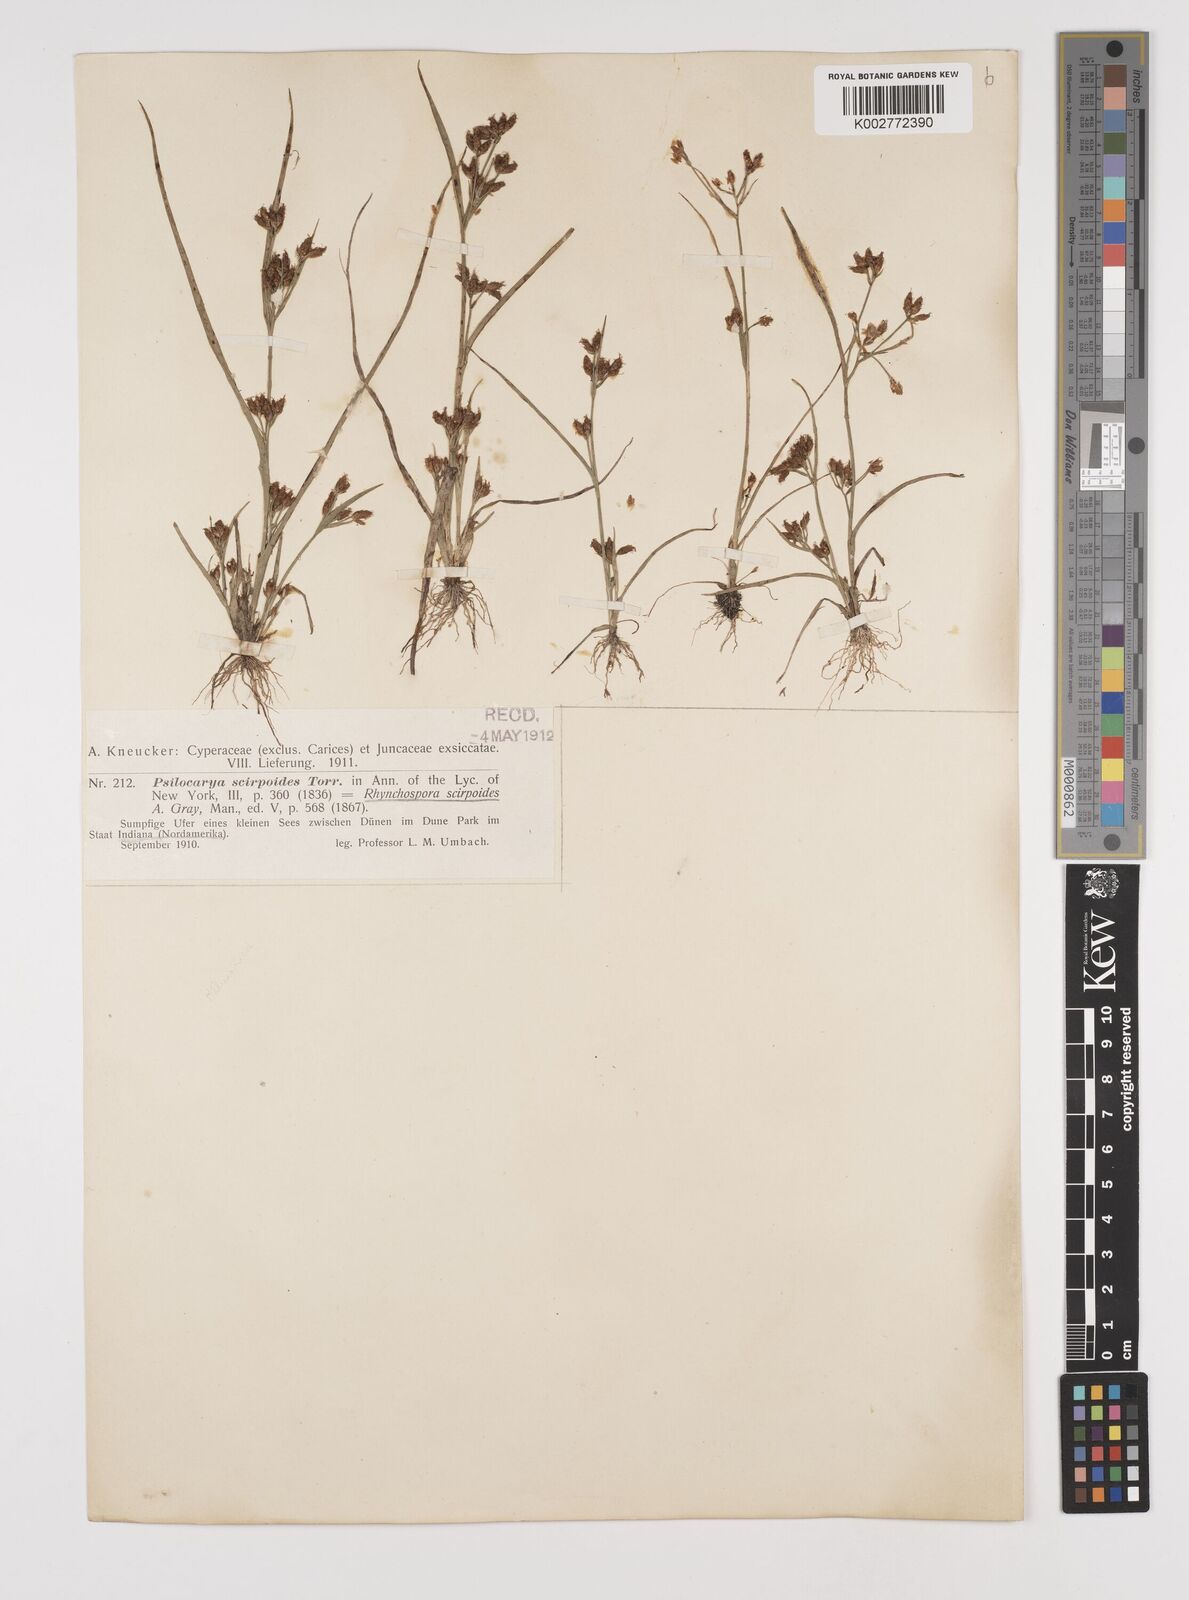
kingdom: Plantae
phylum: Tracheophyta
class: Liliopsida
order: Poales
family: Cyperaceae
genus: Rhynchospora
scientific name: Rhynchospora scirpoides
